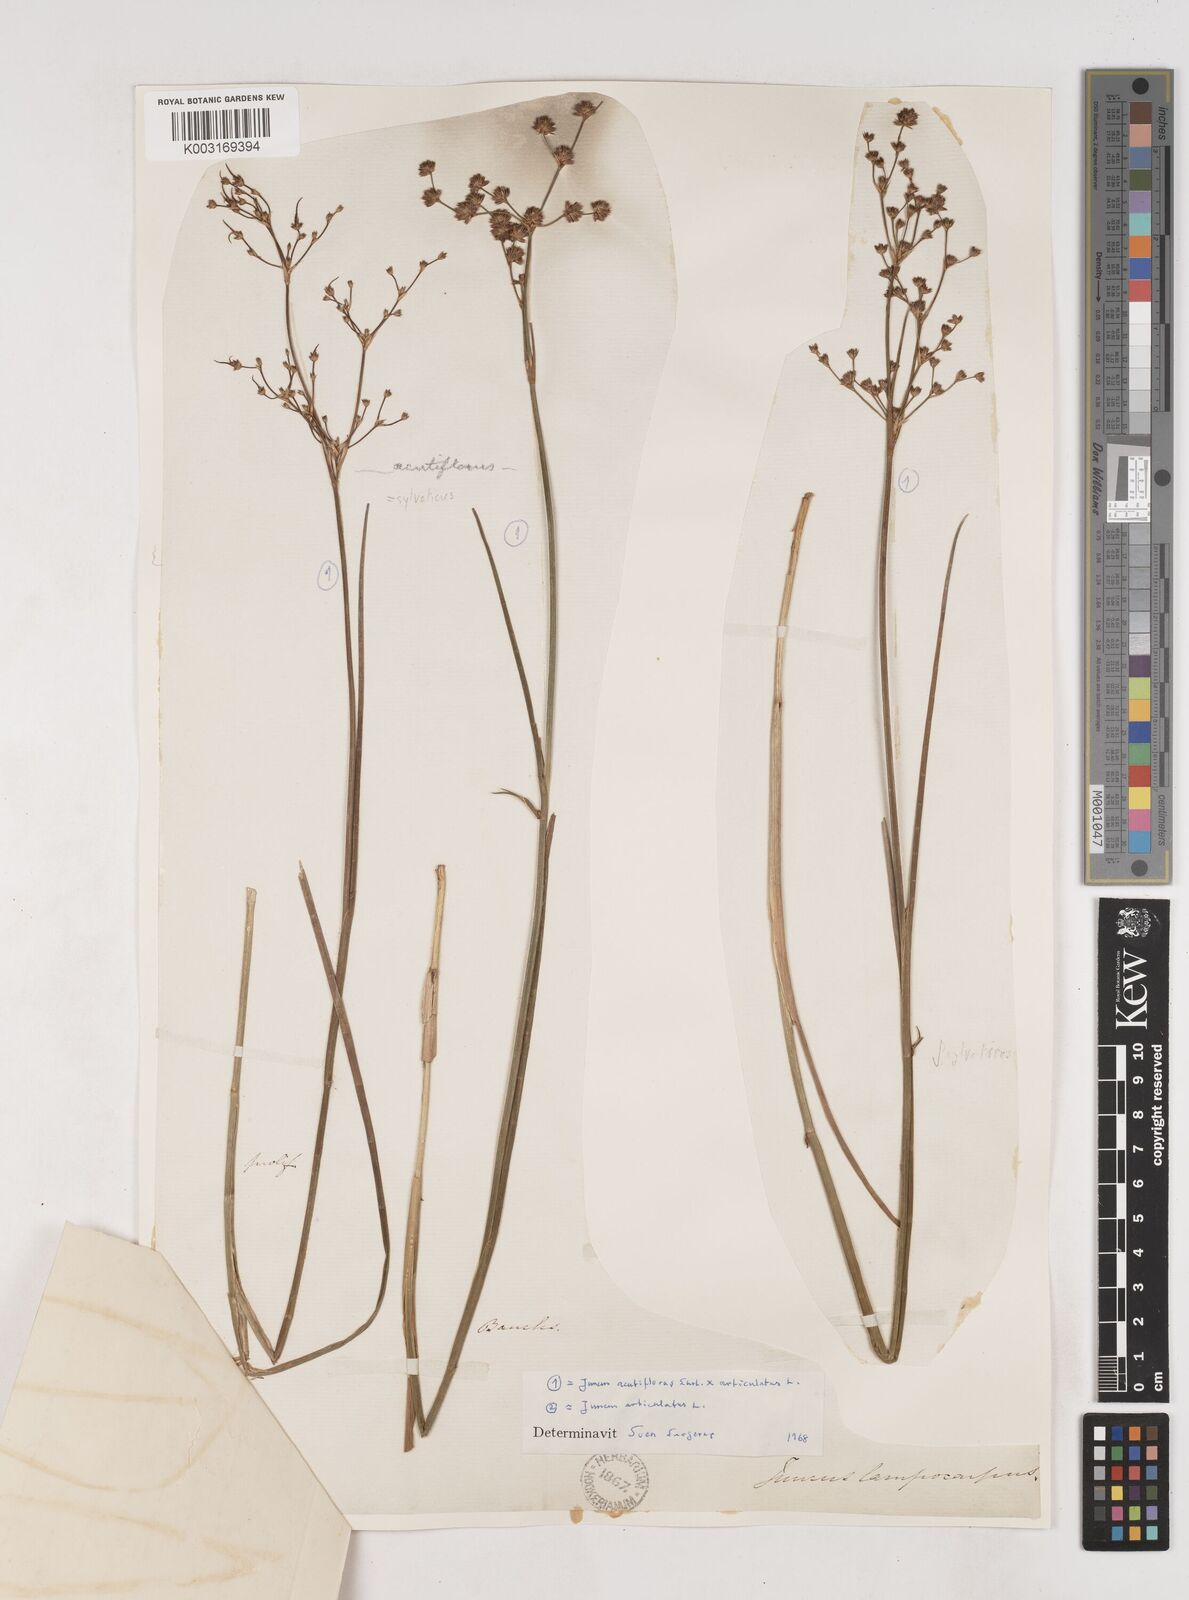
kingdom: Plantae
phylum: Tracheophyta
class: Liliopsida
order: Poales
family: Juncaceae
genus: Juncus
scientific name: Juncus acutiflorus
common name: Sharp-flowered rush
